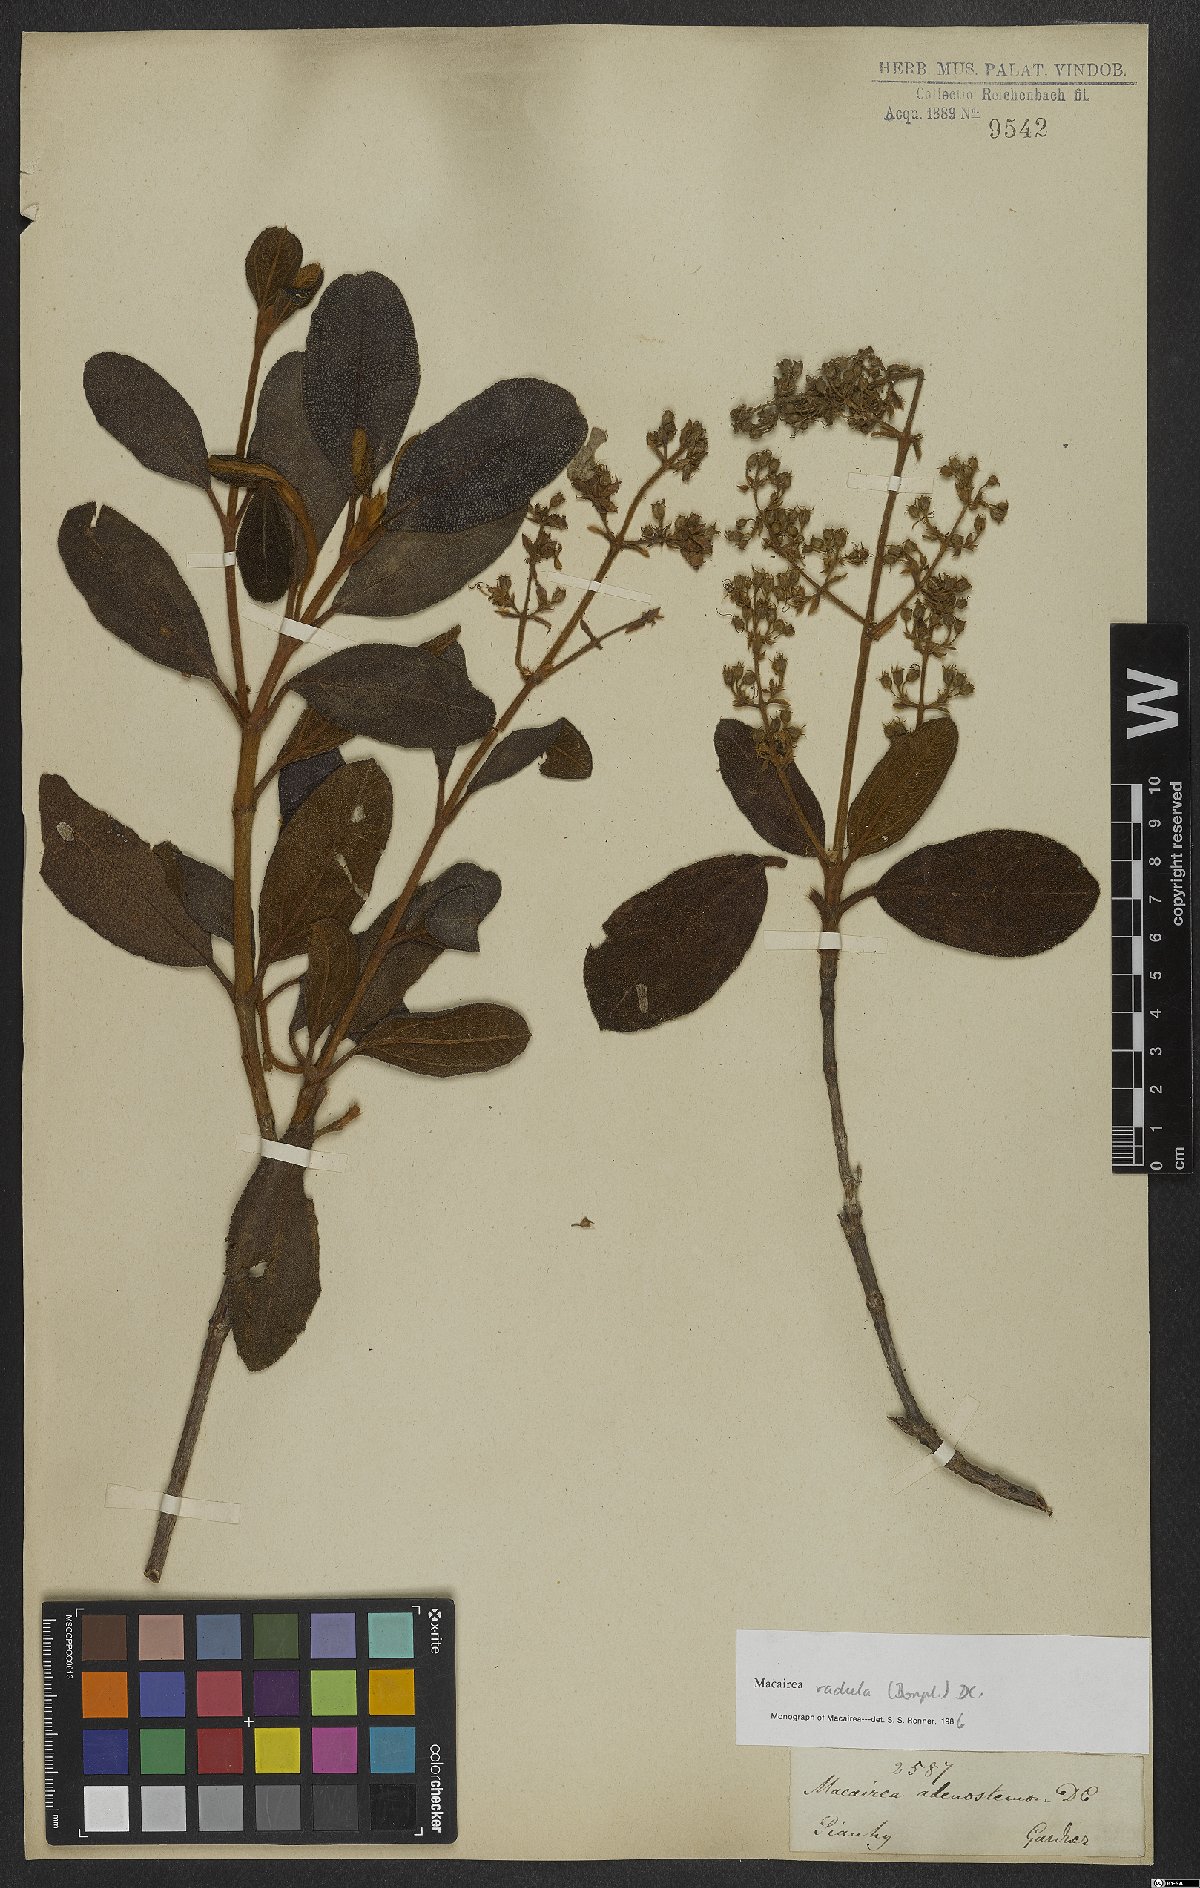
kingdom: Plantae
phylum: Tracheophyta
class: Magnoliopsida
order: Myrtales
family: Melastomataceae
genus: Macairea
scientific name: Macairea radula
